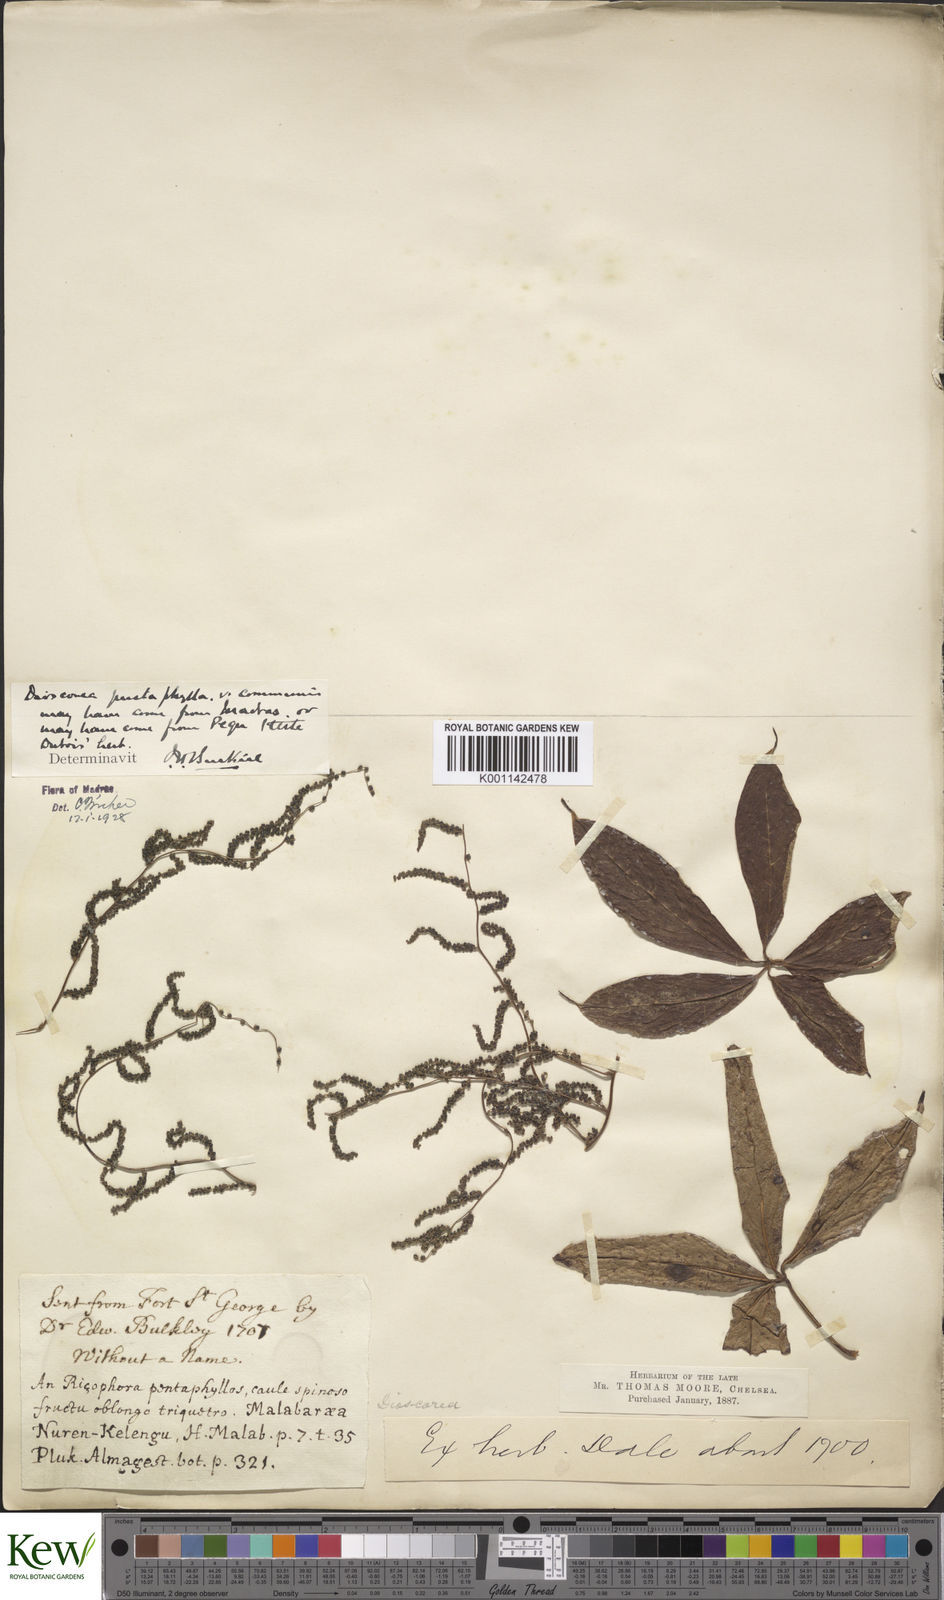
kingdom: Plantae
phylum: Tracheophyta
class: Liliopsida
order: Dioscoreales
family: Dioscoreaceae
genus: Dioscorea
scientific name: Dioscorea pentaphylla
